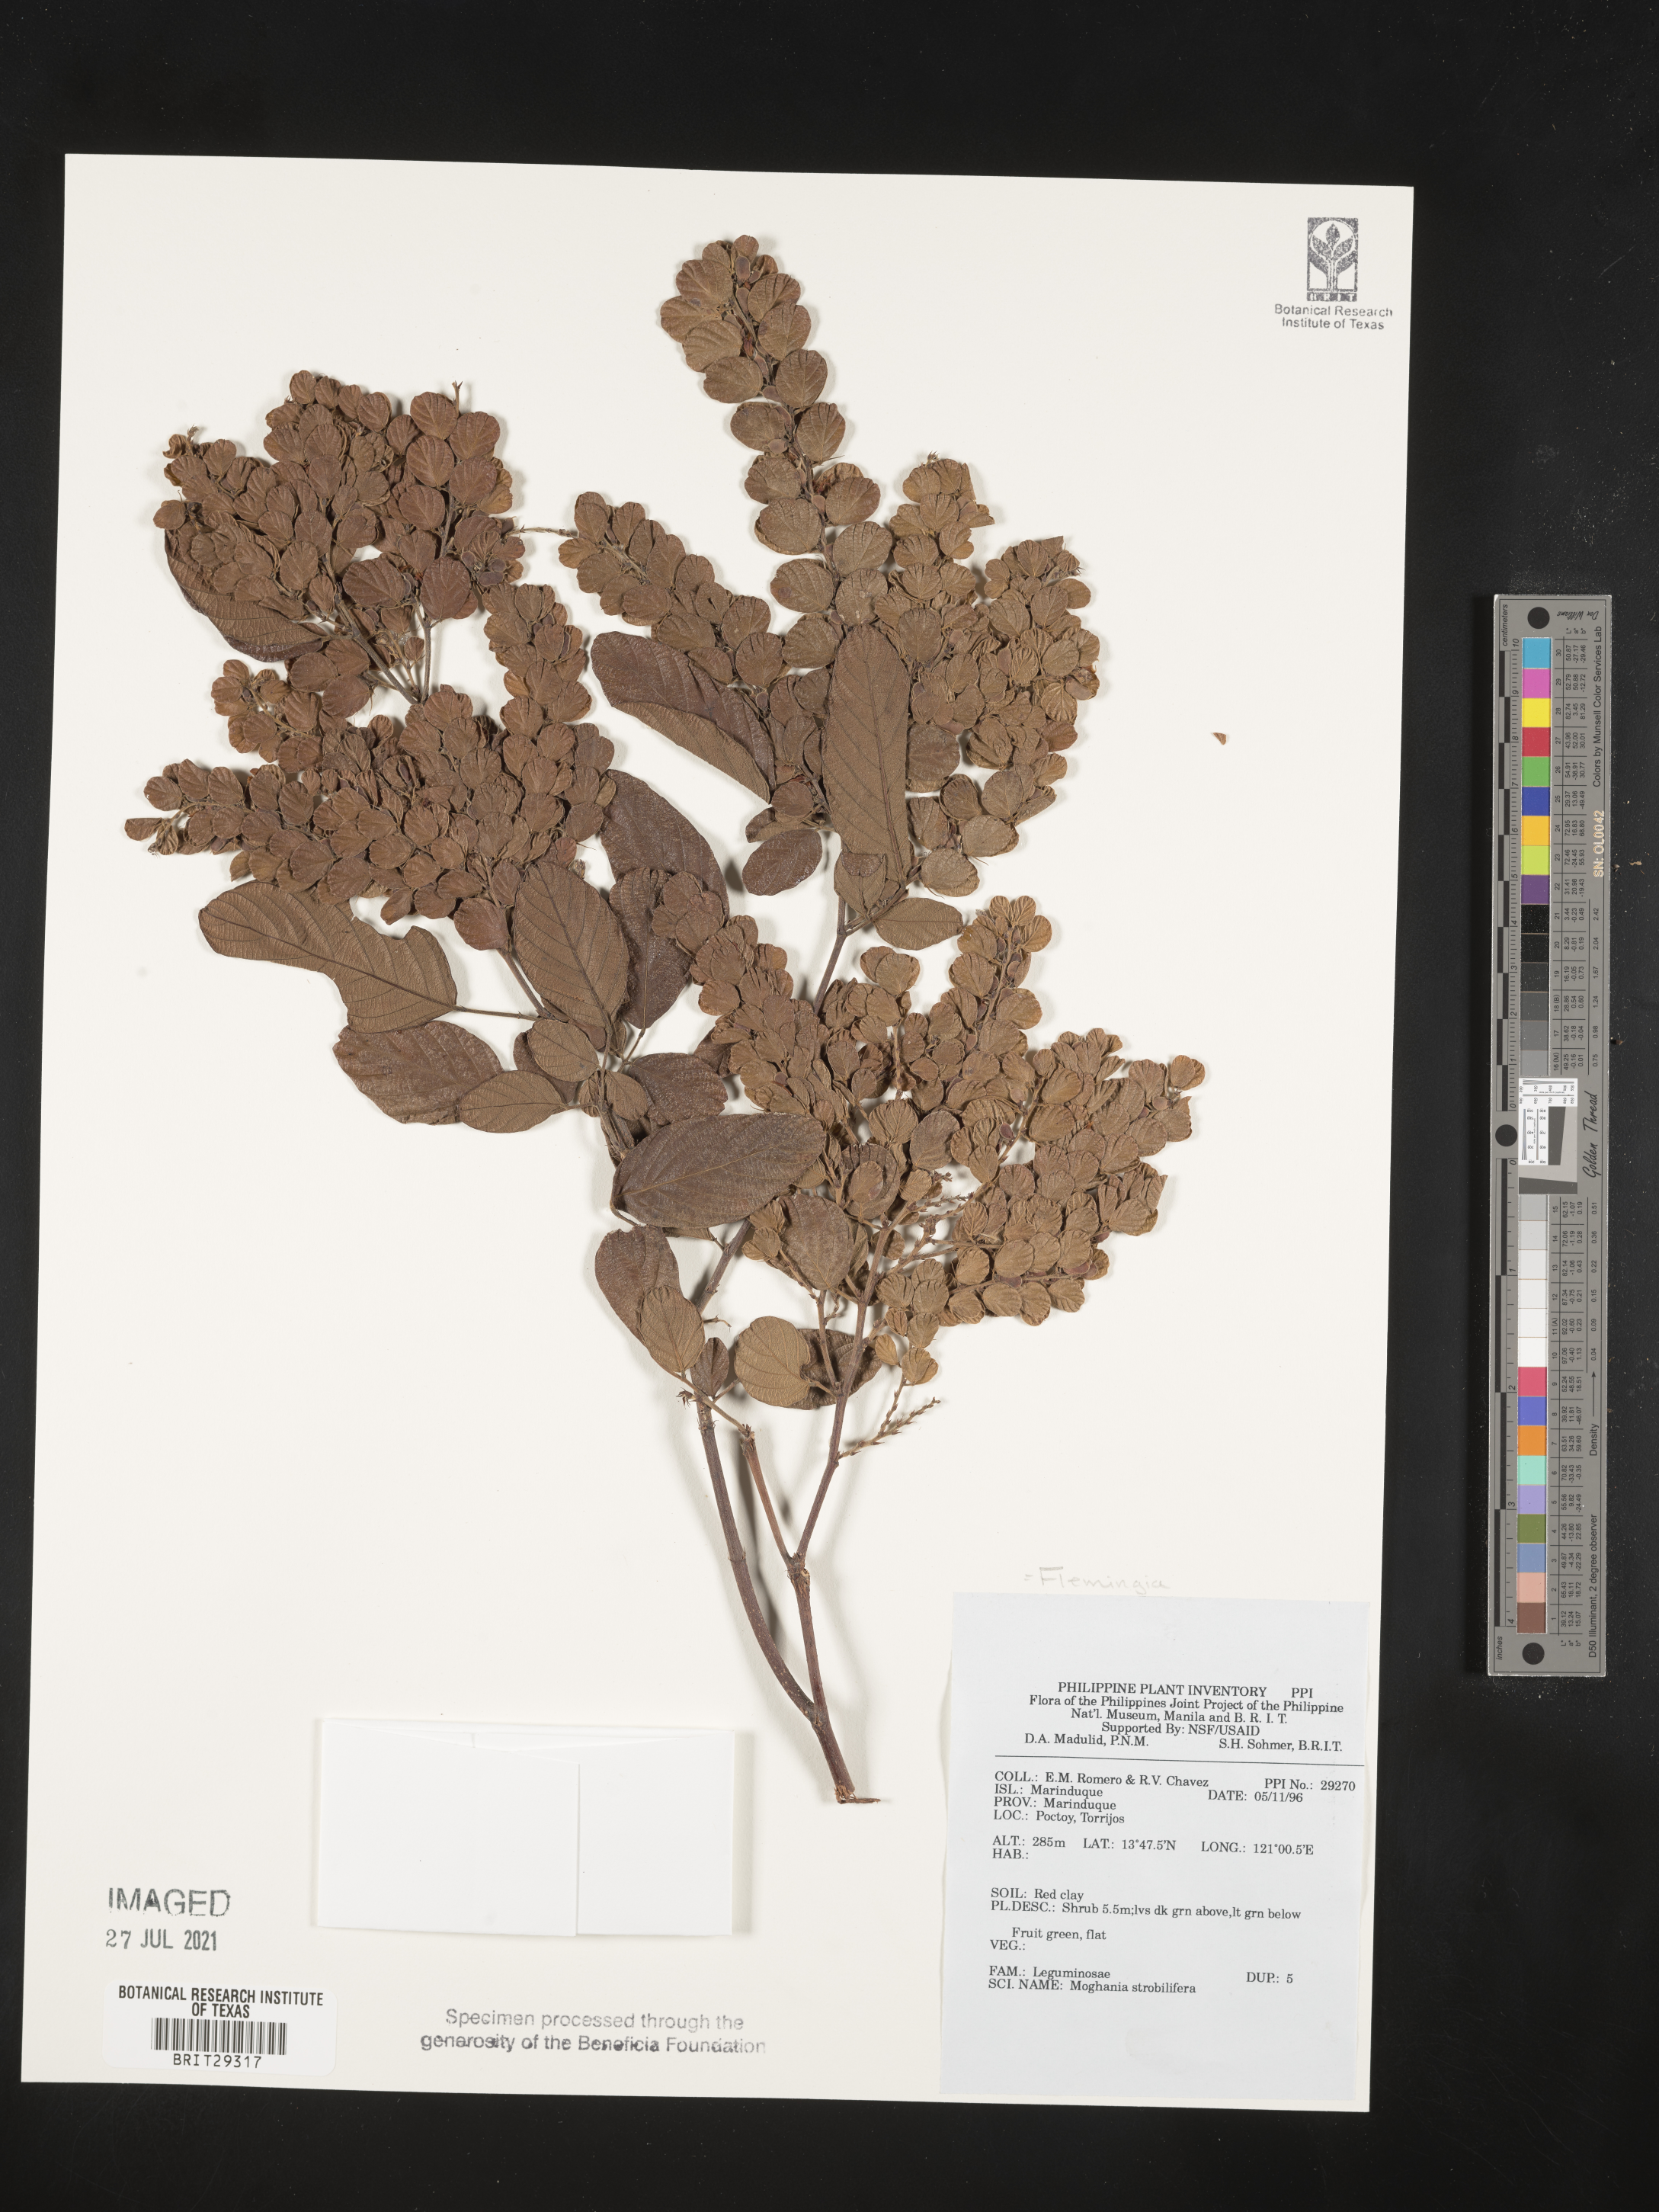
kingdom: Plantae
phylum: Tracheophyta
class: Magnoliopsida
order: Fabales
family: Fabaceae
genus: Flemingia
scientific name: Flemingia
